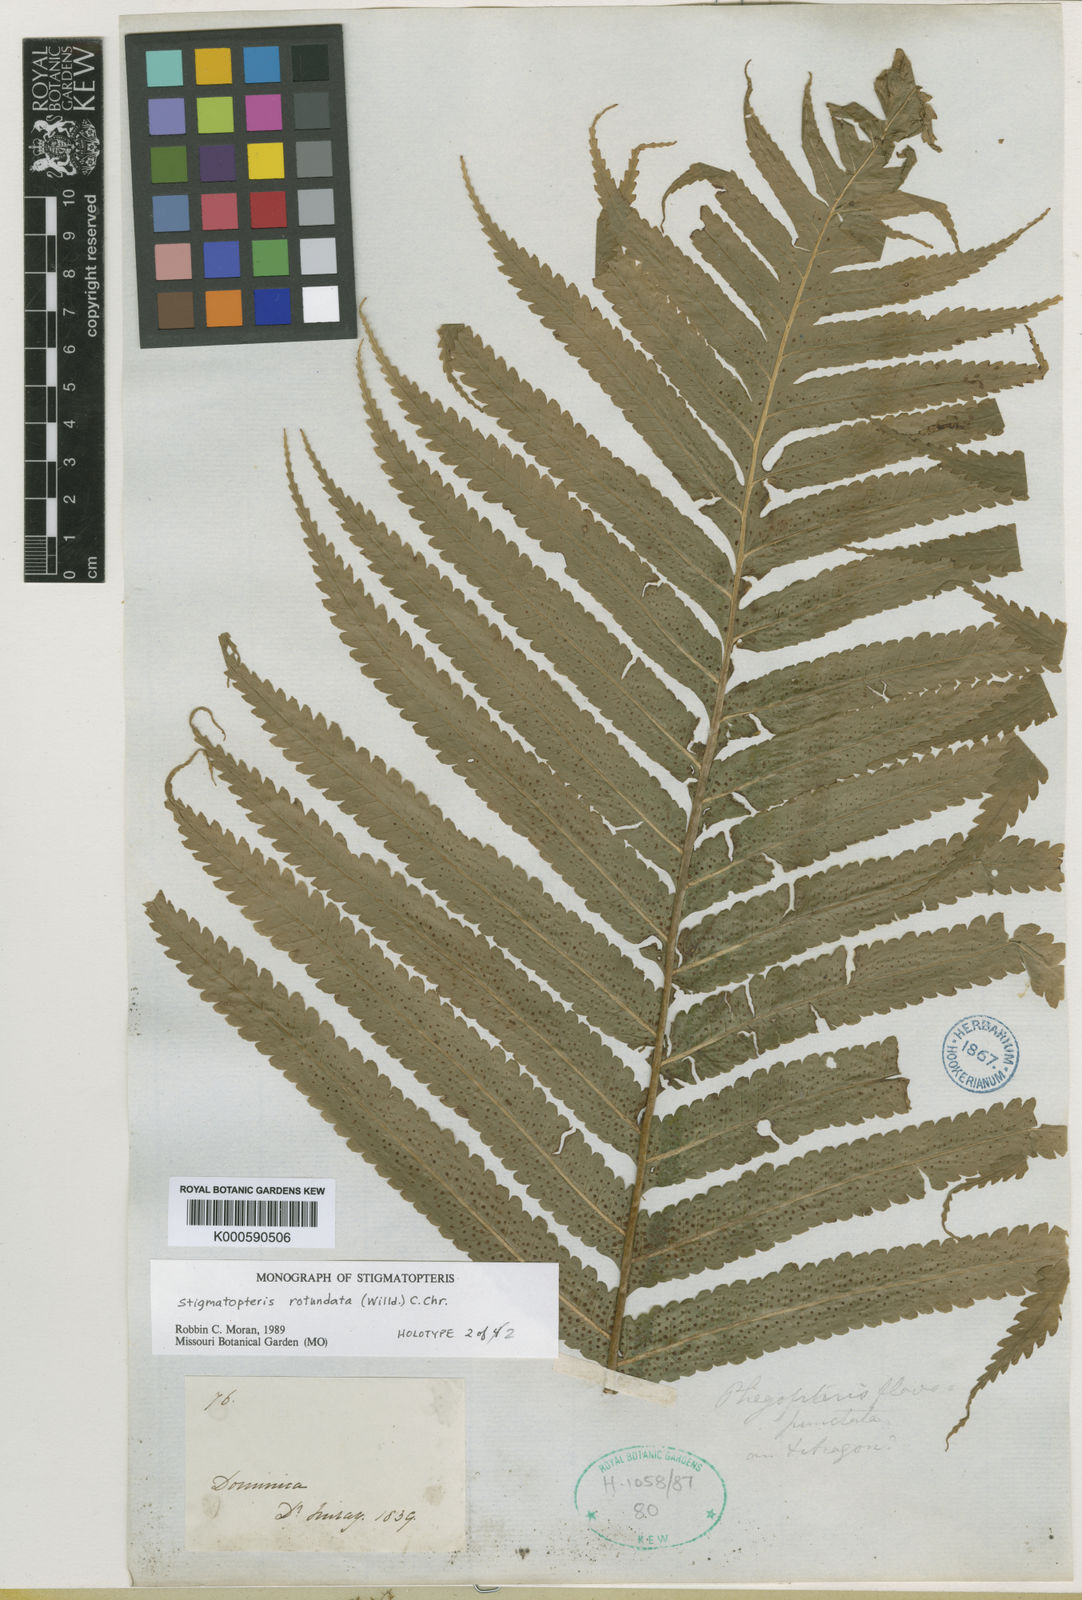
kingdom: Plantae
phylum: Tracheophyta
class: Polypodiopsida
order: Polypodiales
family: Dryopteridaceae
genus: Stigmatopteris
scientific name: Stigmatopteris rotundata
